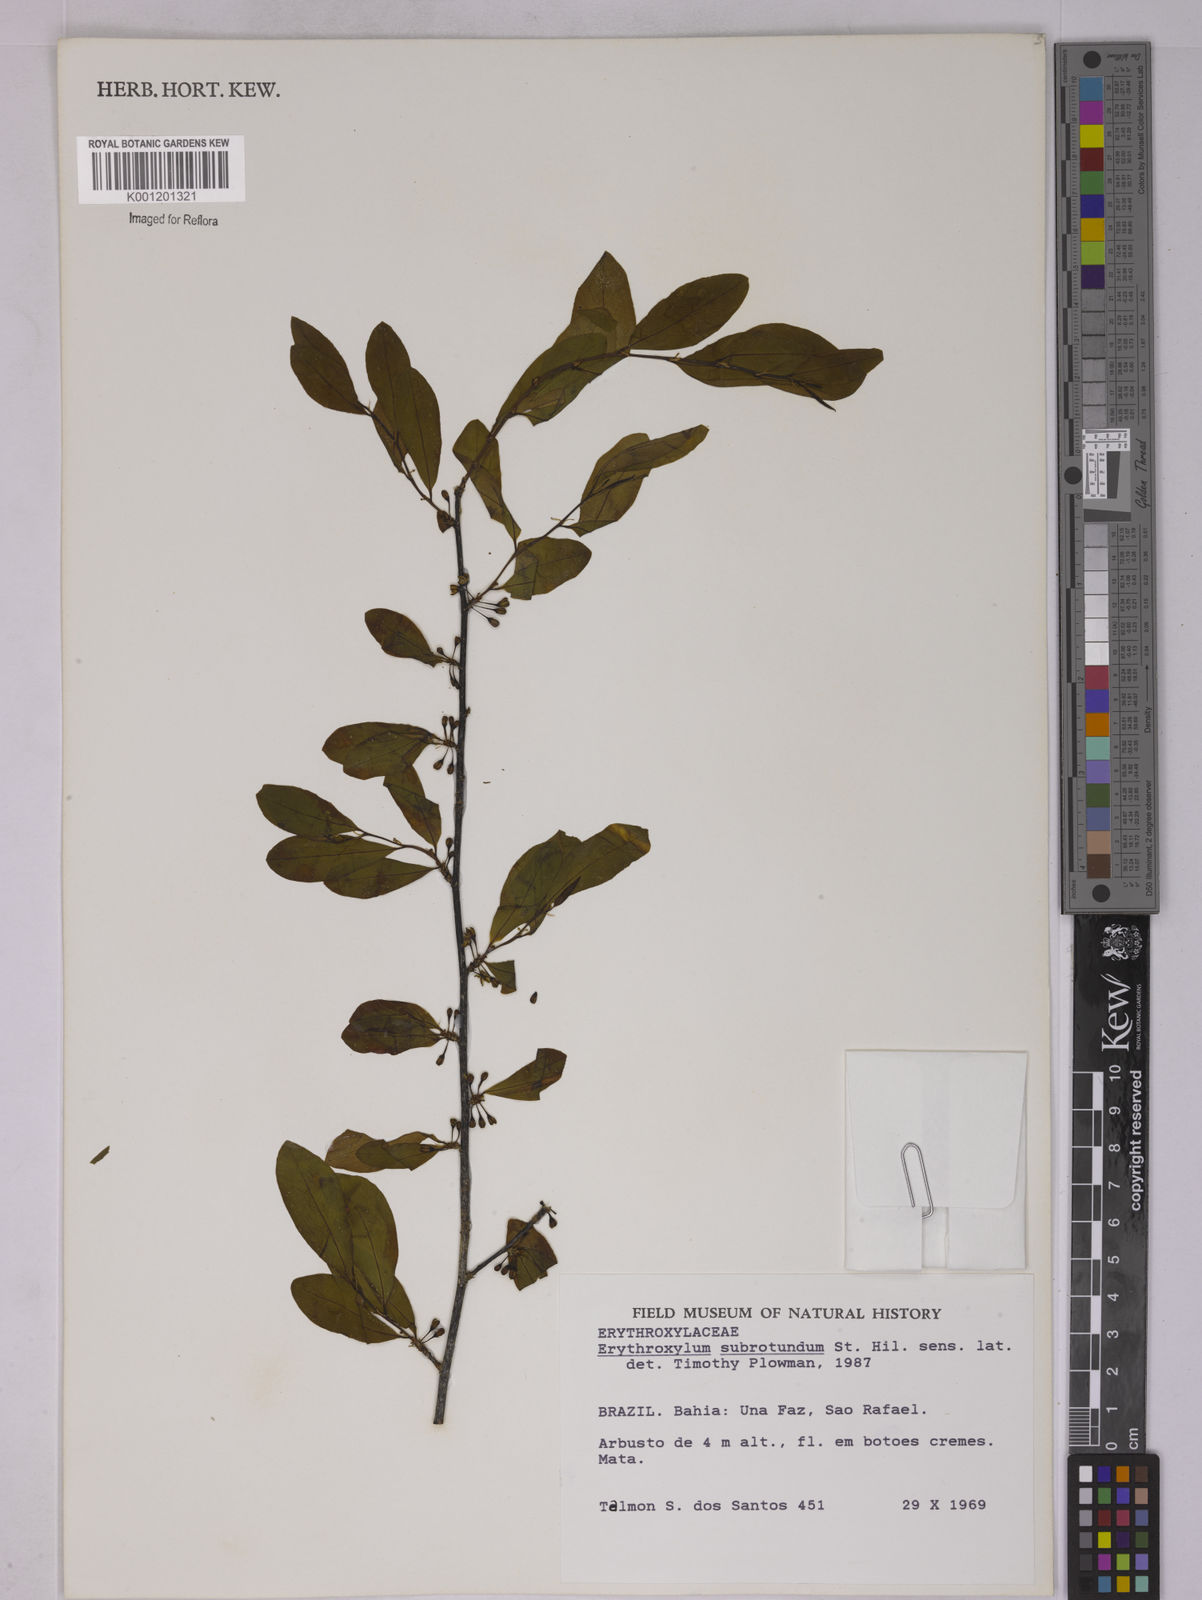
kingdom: Plantae
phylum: Tracheophyta
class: Magnoliopsida
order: Malpighiales
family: Erythroxylaceae
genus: Erythroxylum
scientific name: Erythroxylum subrotundum
